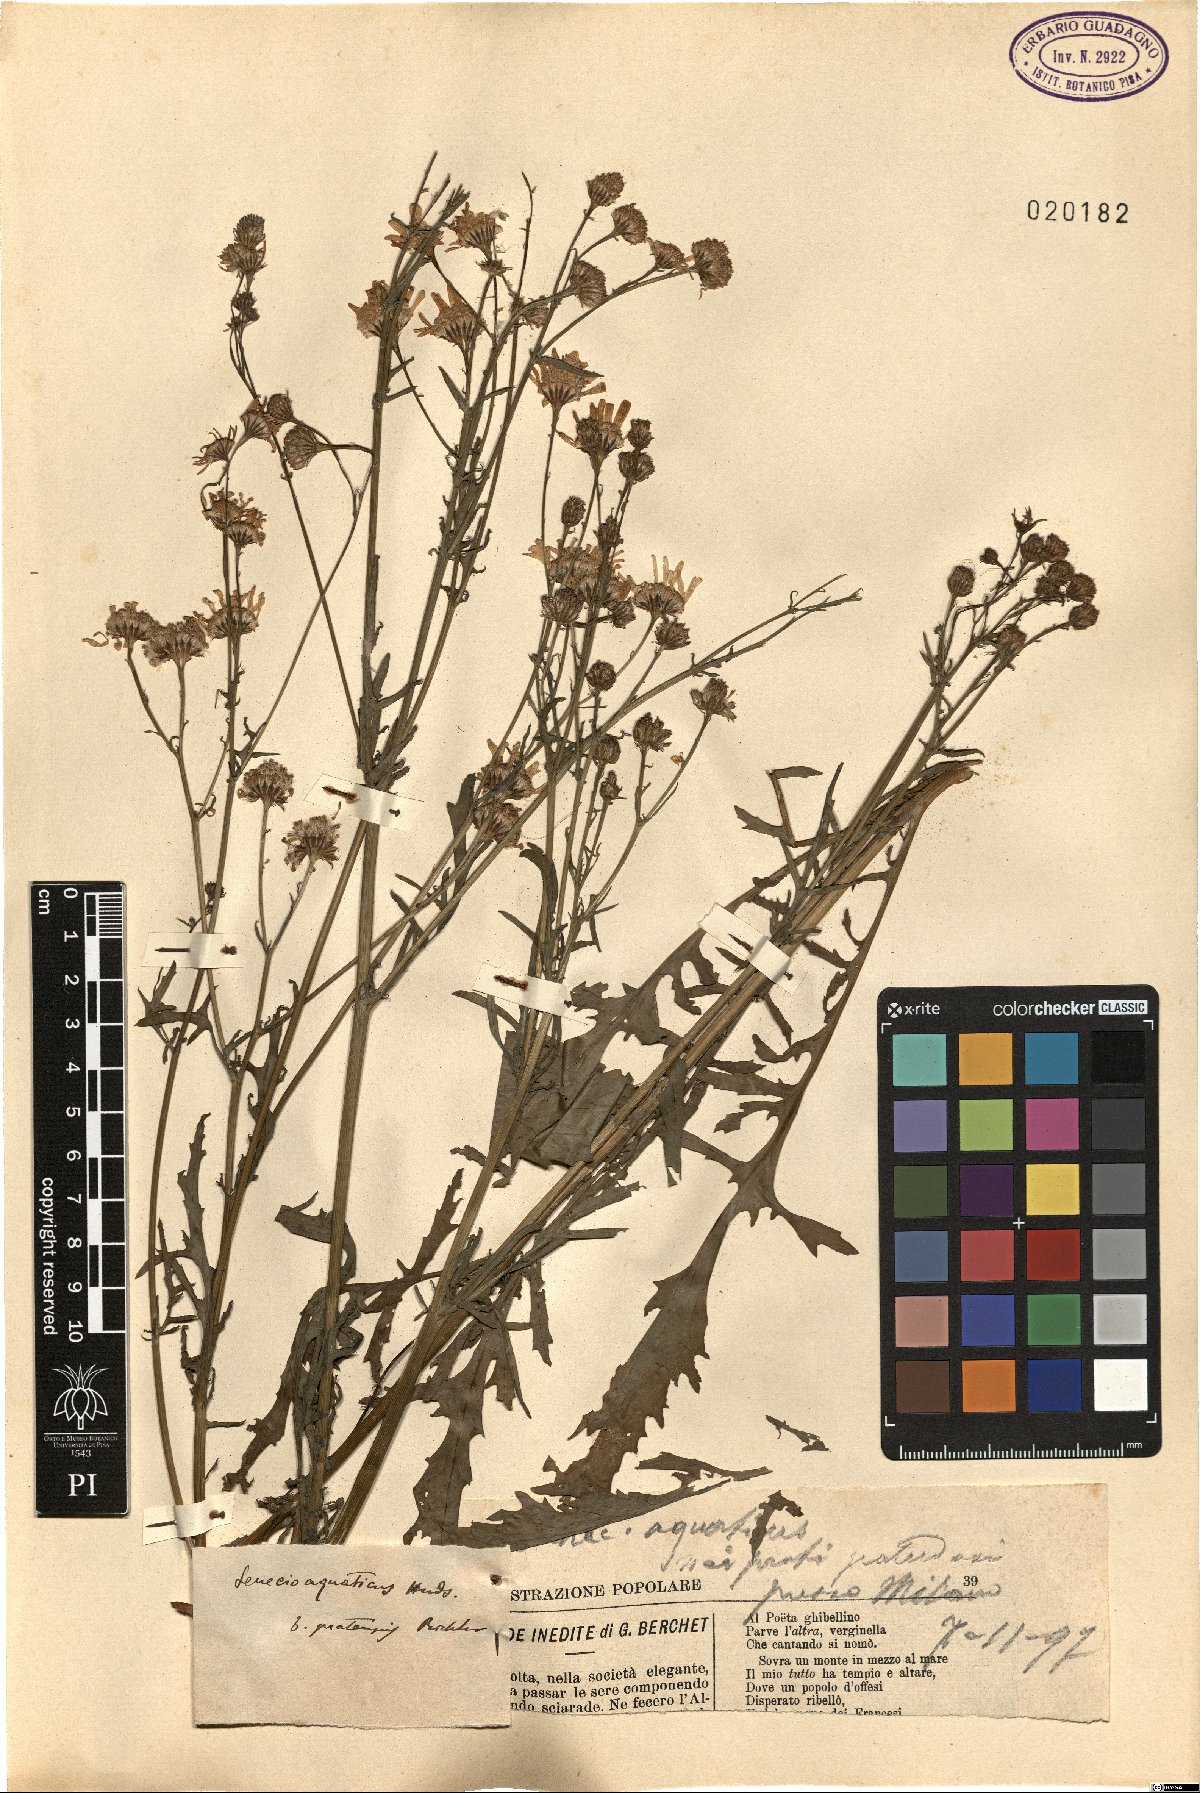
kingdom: Plantae
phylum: Tracheophyta
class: Magnoliopsida
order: Asterales
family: Asteraceae
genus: Jacobaea
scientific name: Jacobaea aquatica
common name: Water ragwort
